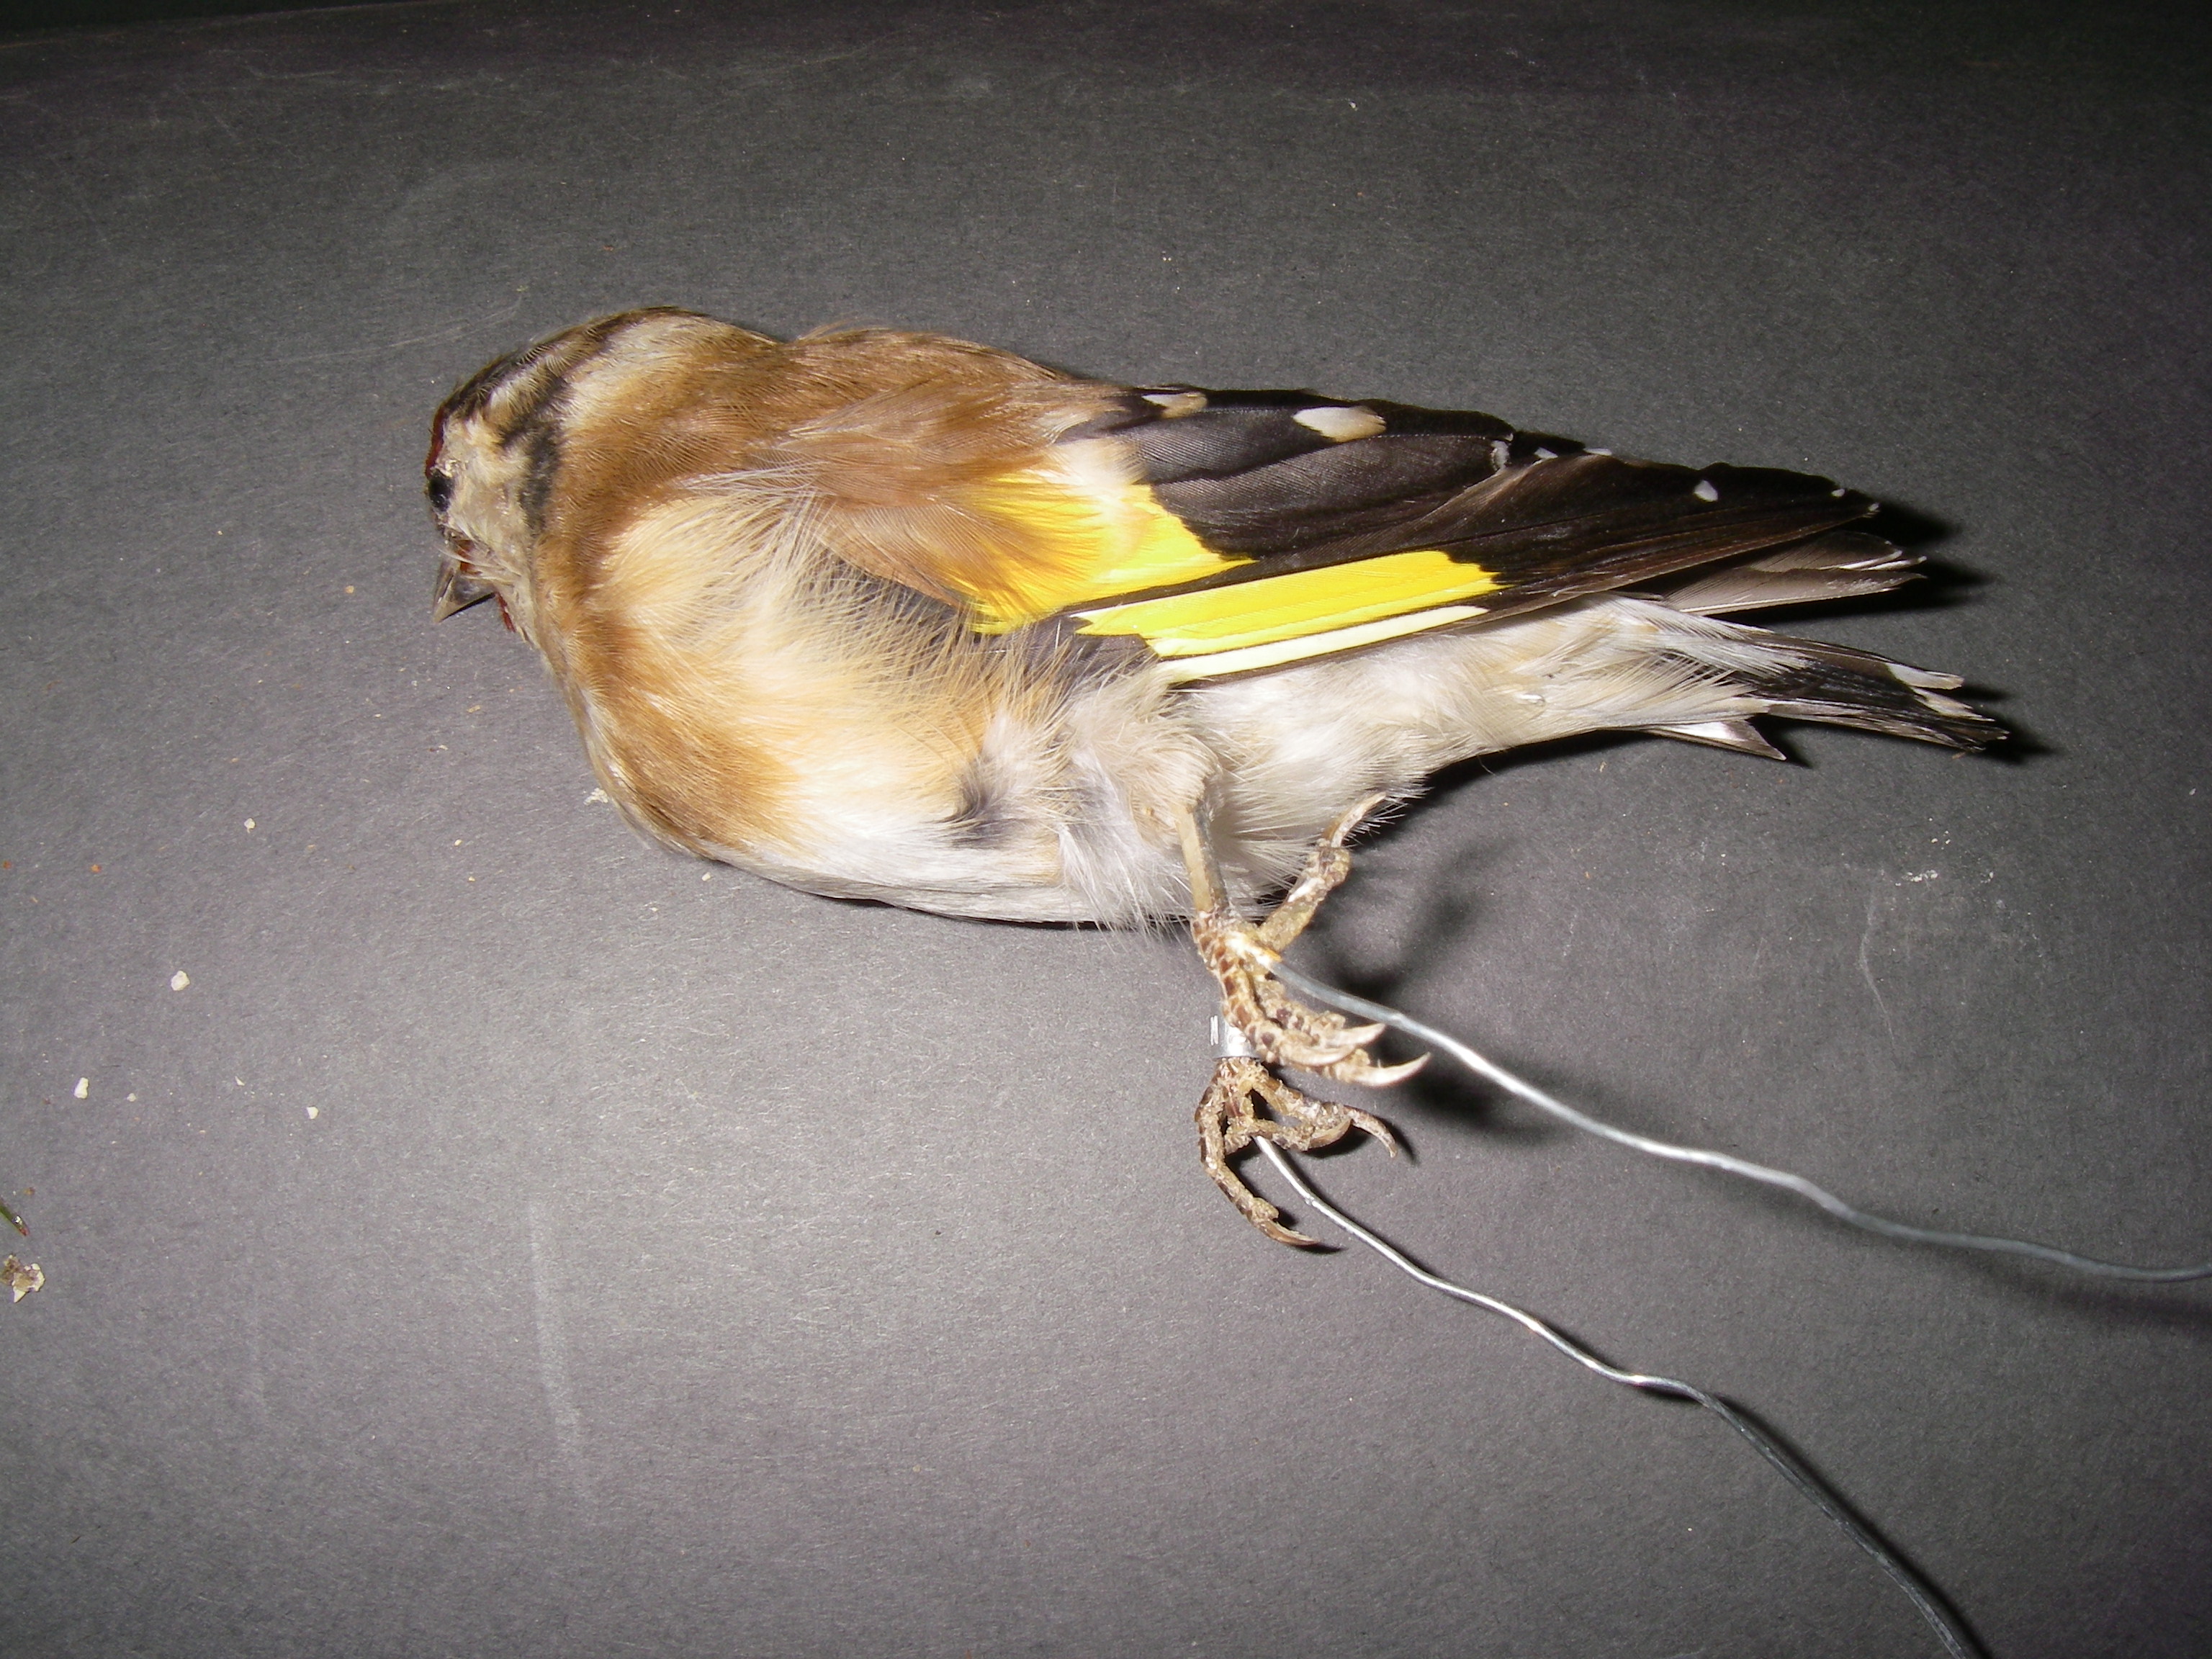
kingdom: Animalia
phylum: Chordata
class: Aves
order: Passeriformes
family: Fringillidae
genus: Carduelis
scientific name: Carduelis carduelis
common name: European goldfinch
